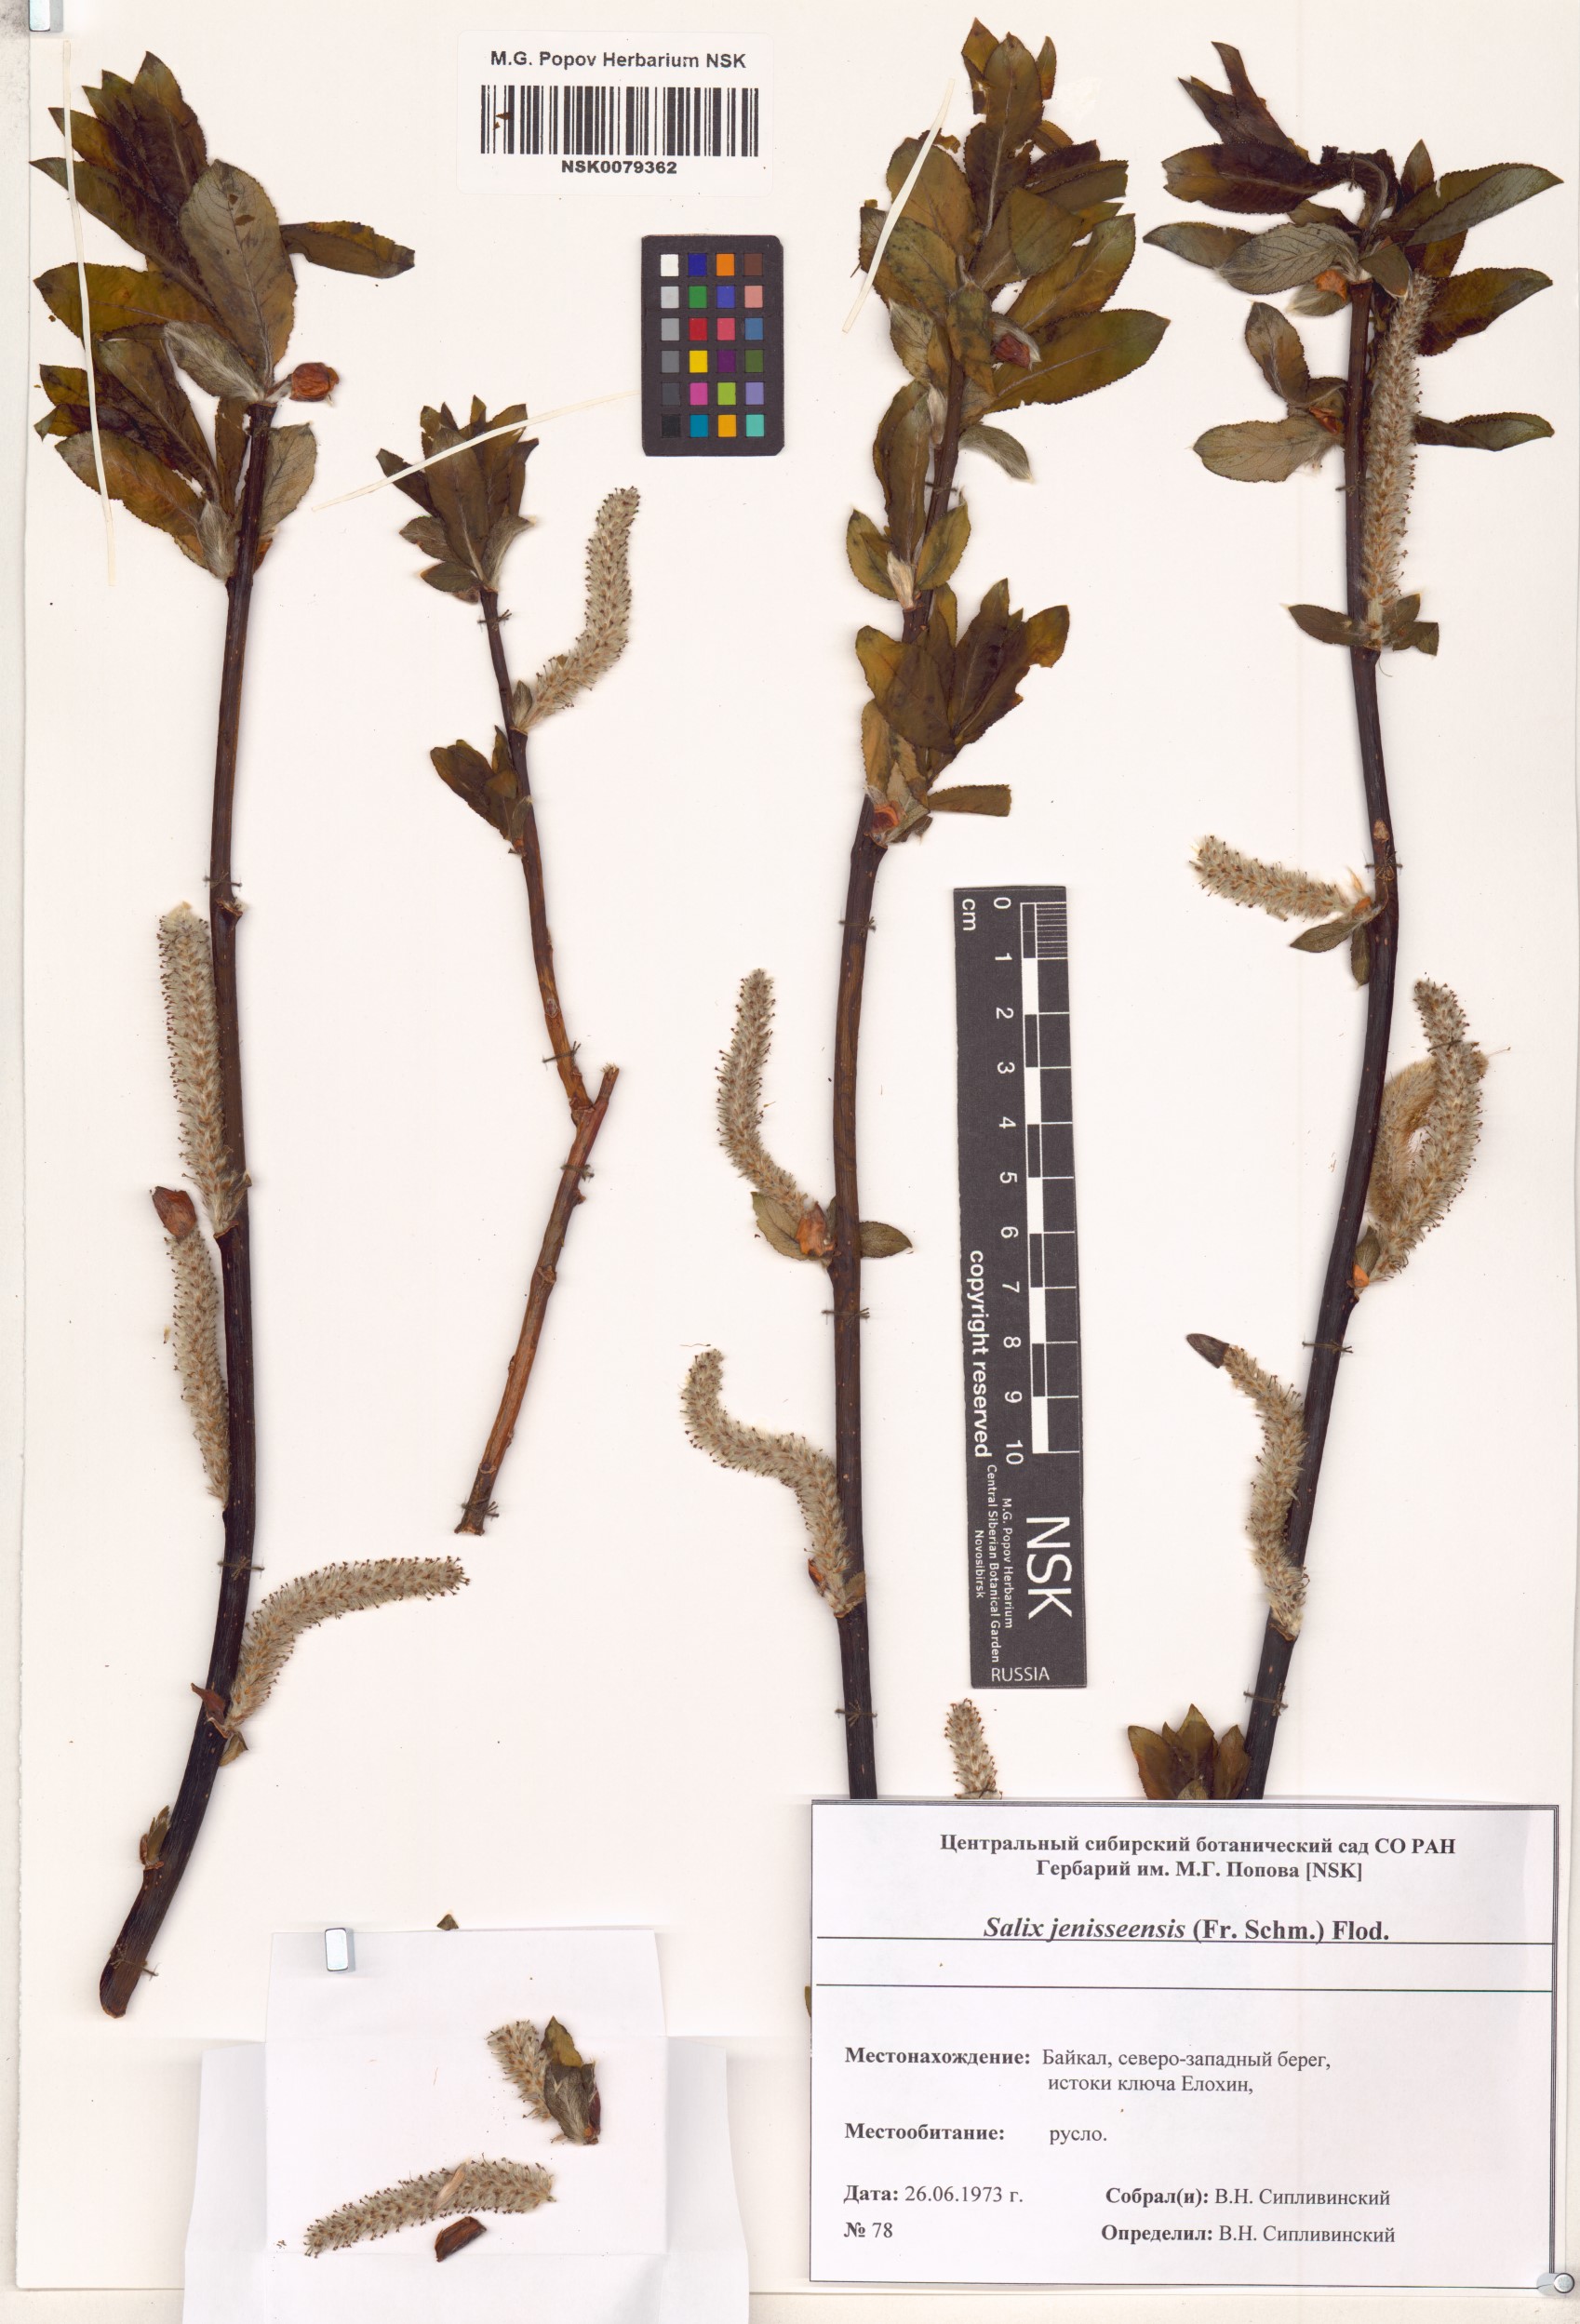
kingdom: Plantae
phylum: Tracheophyta
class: Magnoliopsida
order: Malpighiales
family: Salicaceae
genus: Salix
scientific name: Salix jenisseensis
